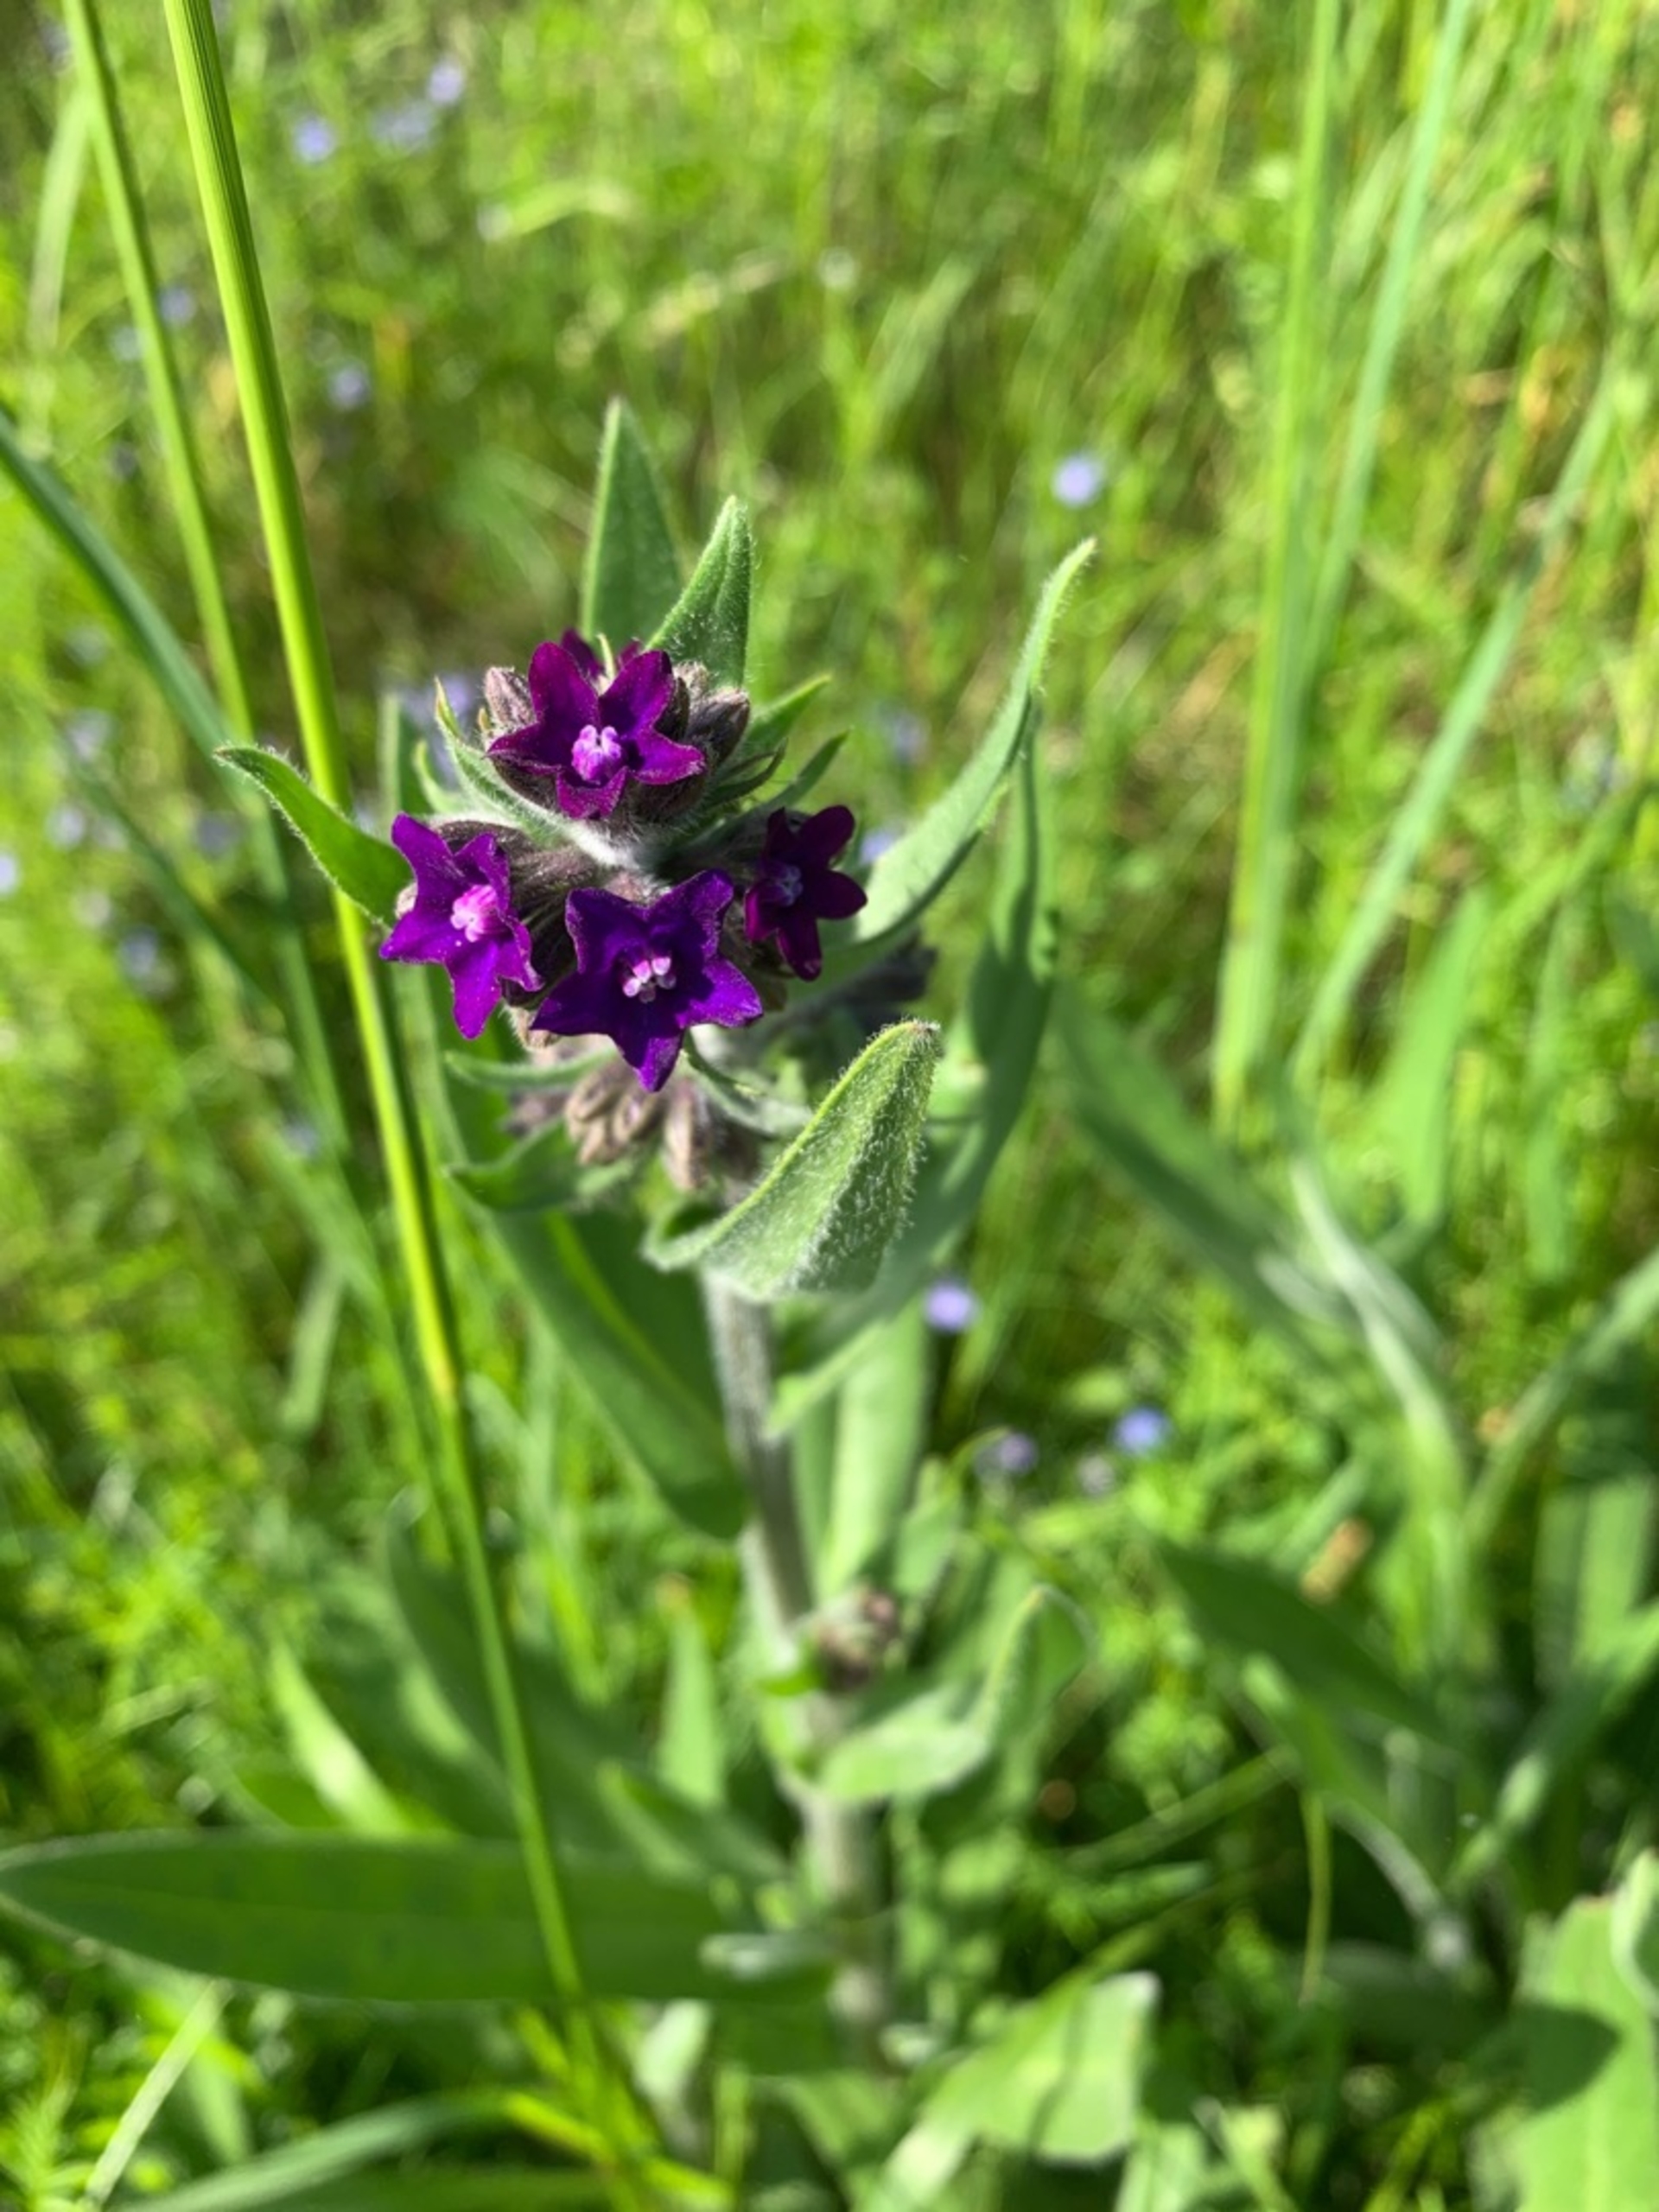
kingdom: Plantae
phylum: Tracheophyta
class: Magnoliopsida
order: Boraginales
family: Boraginaceae
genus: Anchusa
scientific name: Anchusa officinalis
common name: Læge-oksetunge
